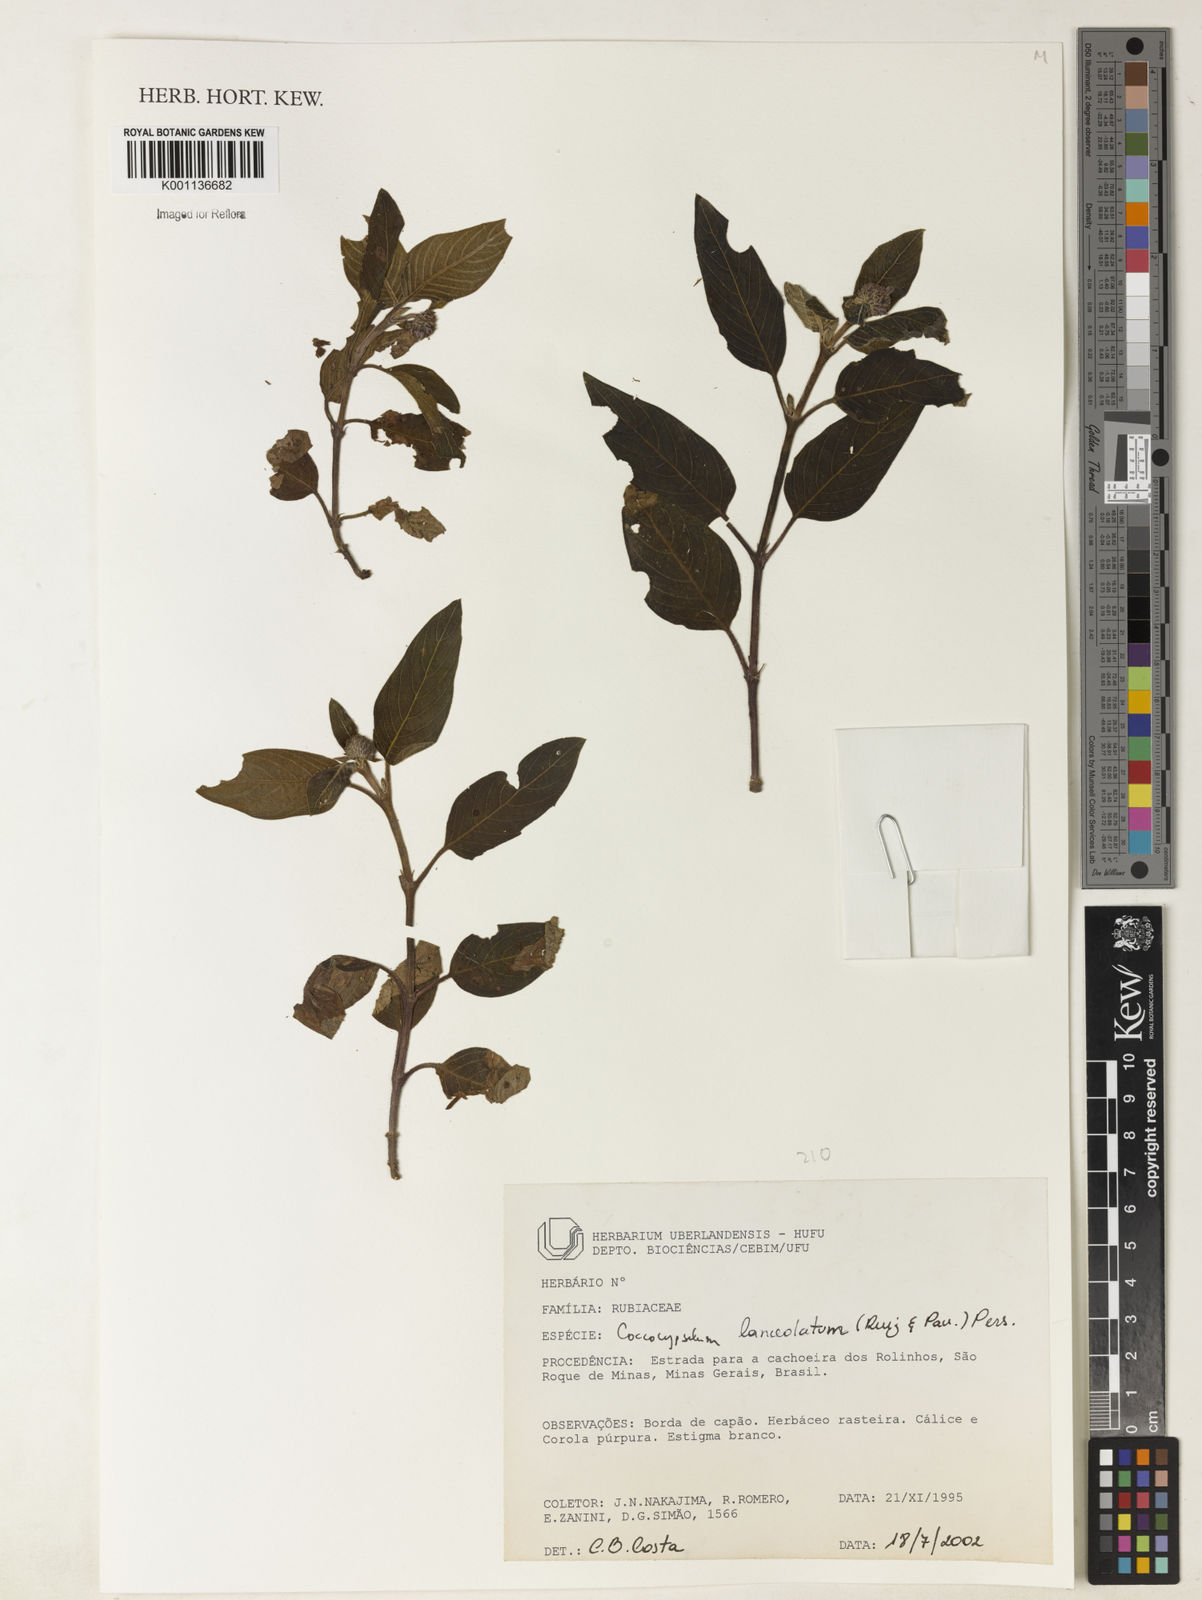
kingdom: Plantae
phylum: Tracheophyta
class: Magnoliopsida
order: Gentianales
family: Rubiaceae
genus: Coccocypselum
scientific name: Coccocypselum lanceolatum
